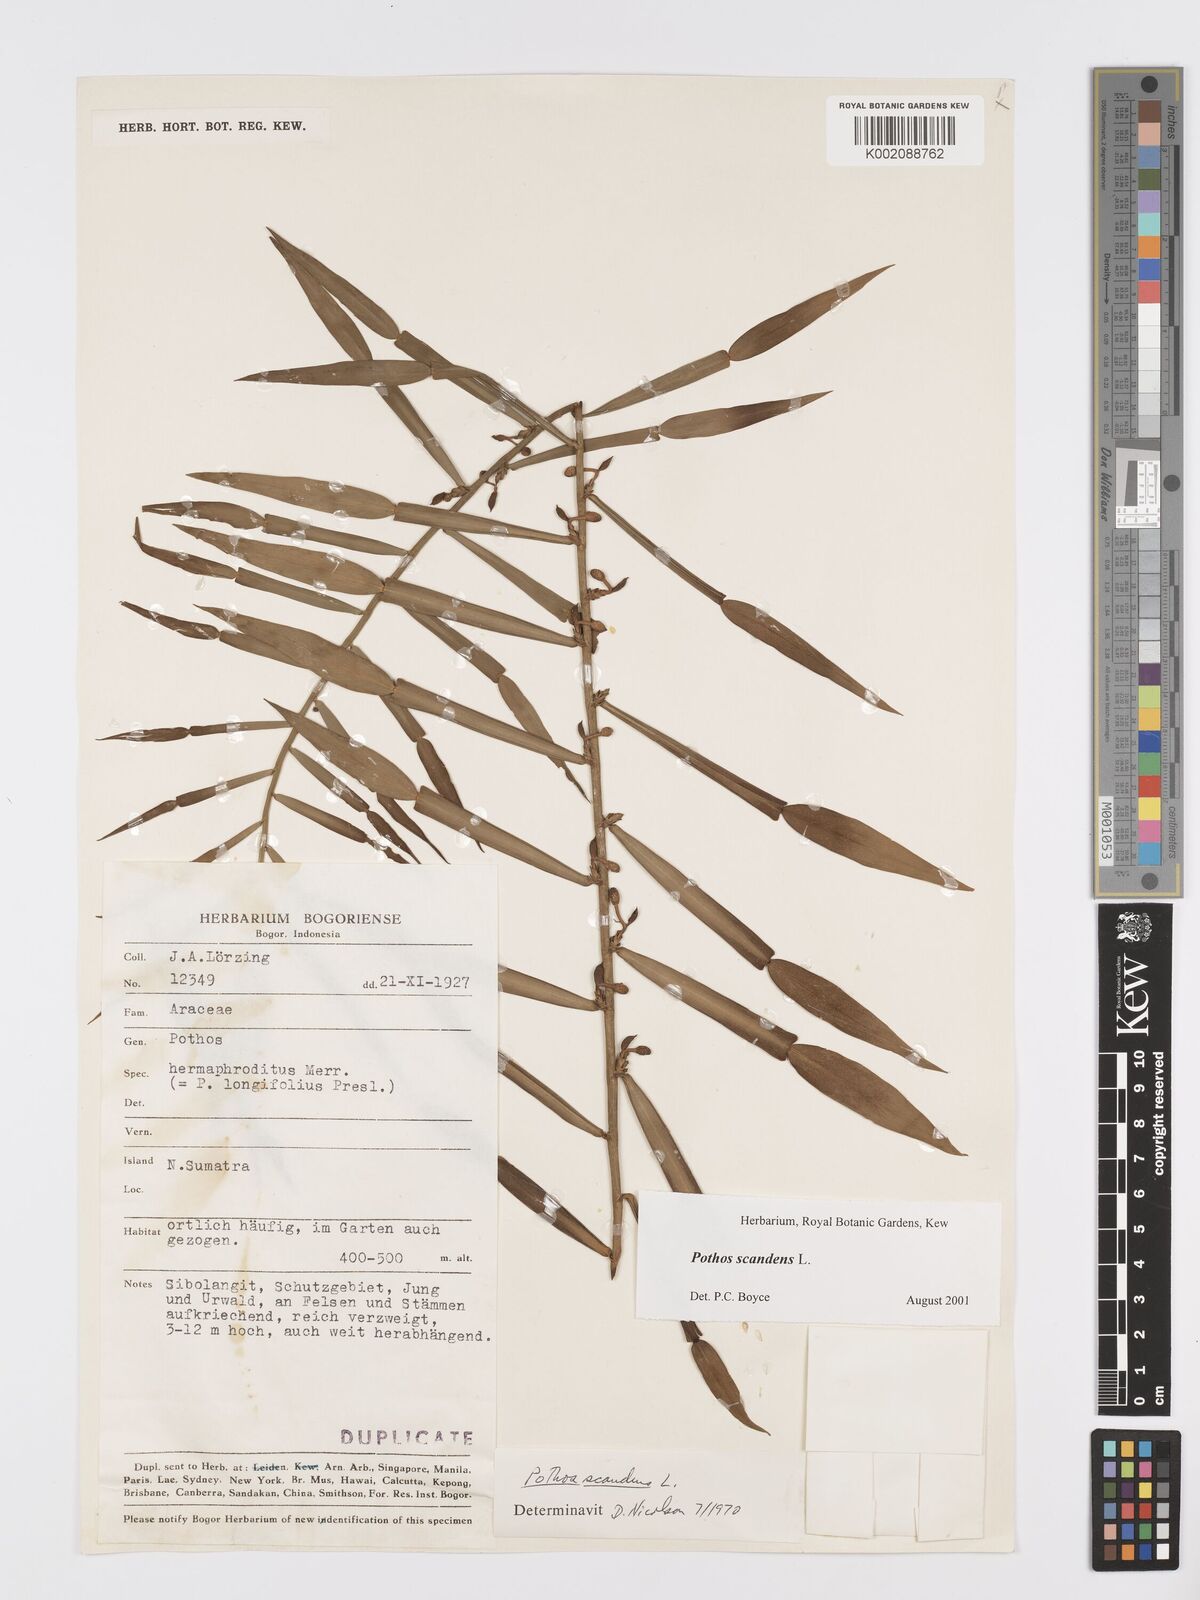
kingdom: Plantae
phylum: Tracheophyta
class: Liliopsida
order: Alismatales
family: Araceae
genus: Pothos
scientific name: Pothos scandens
